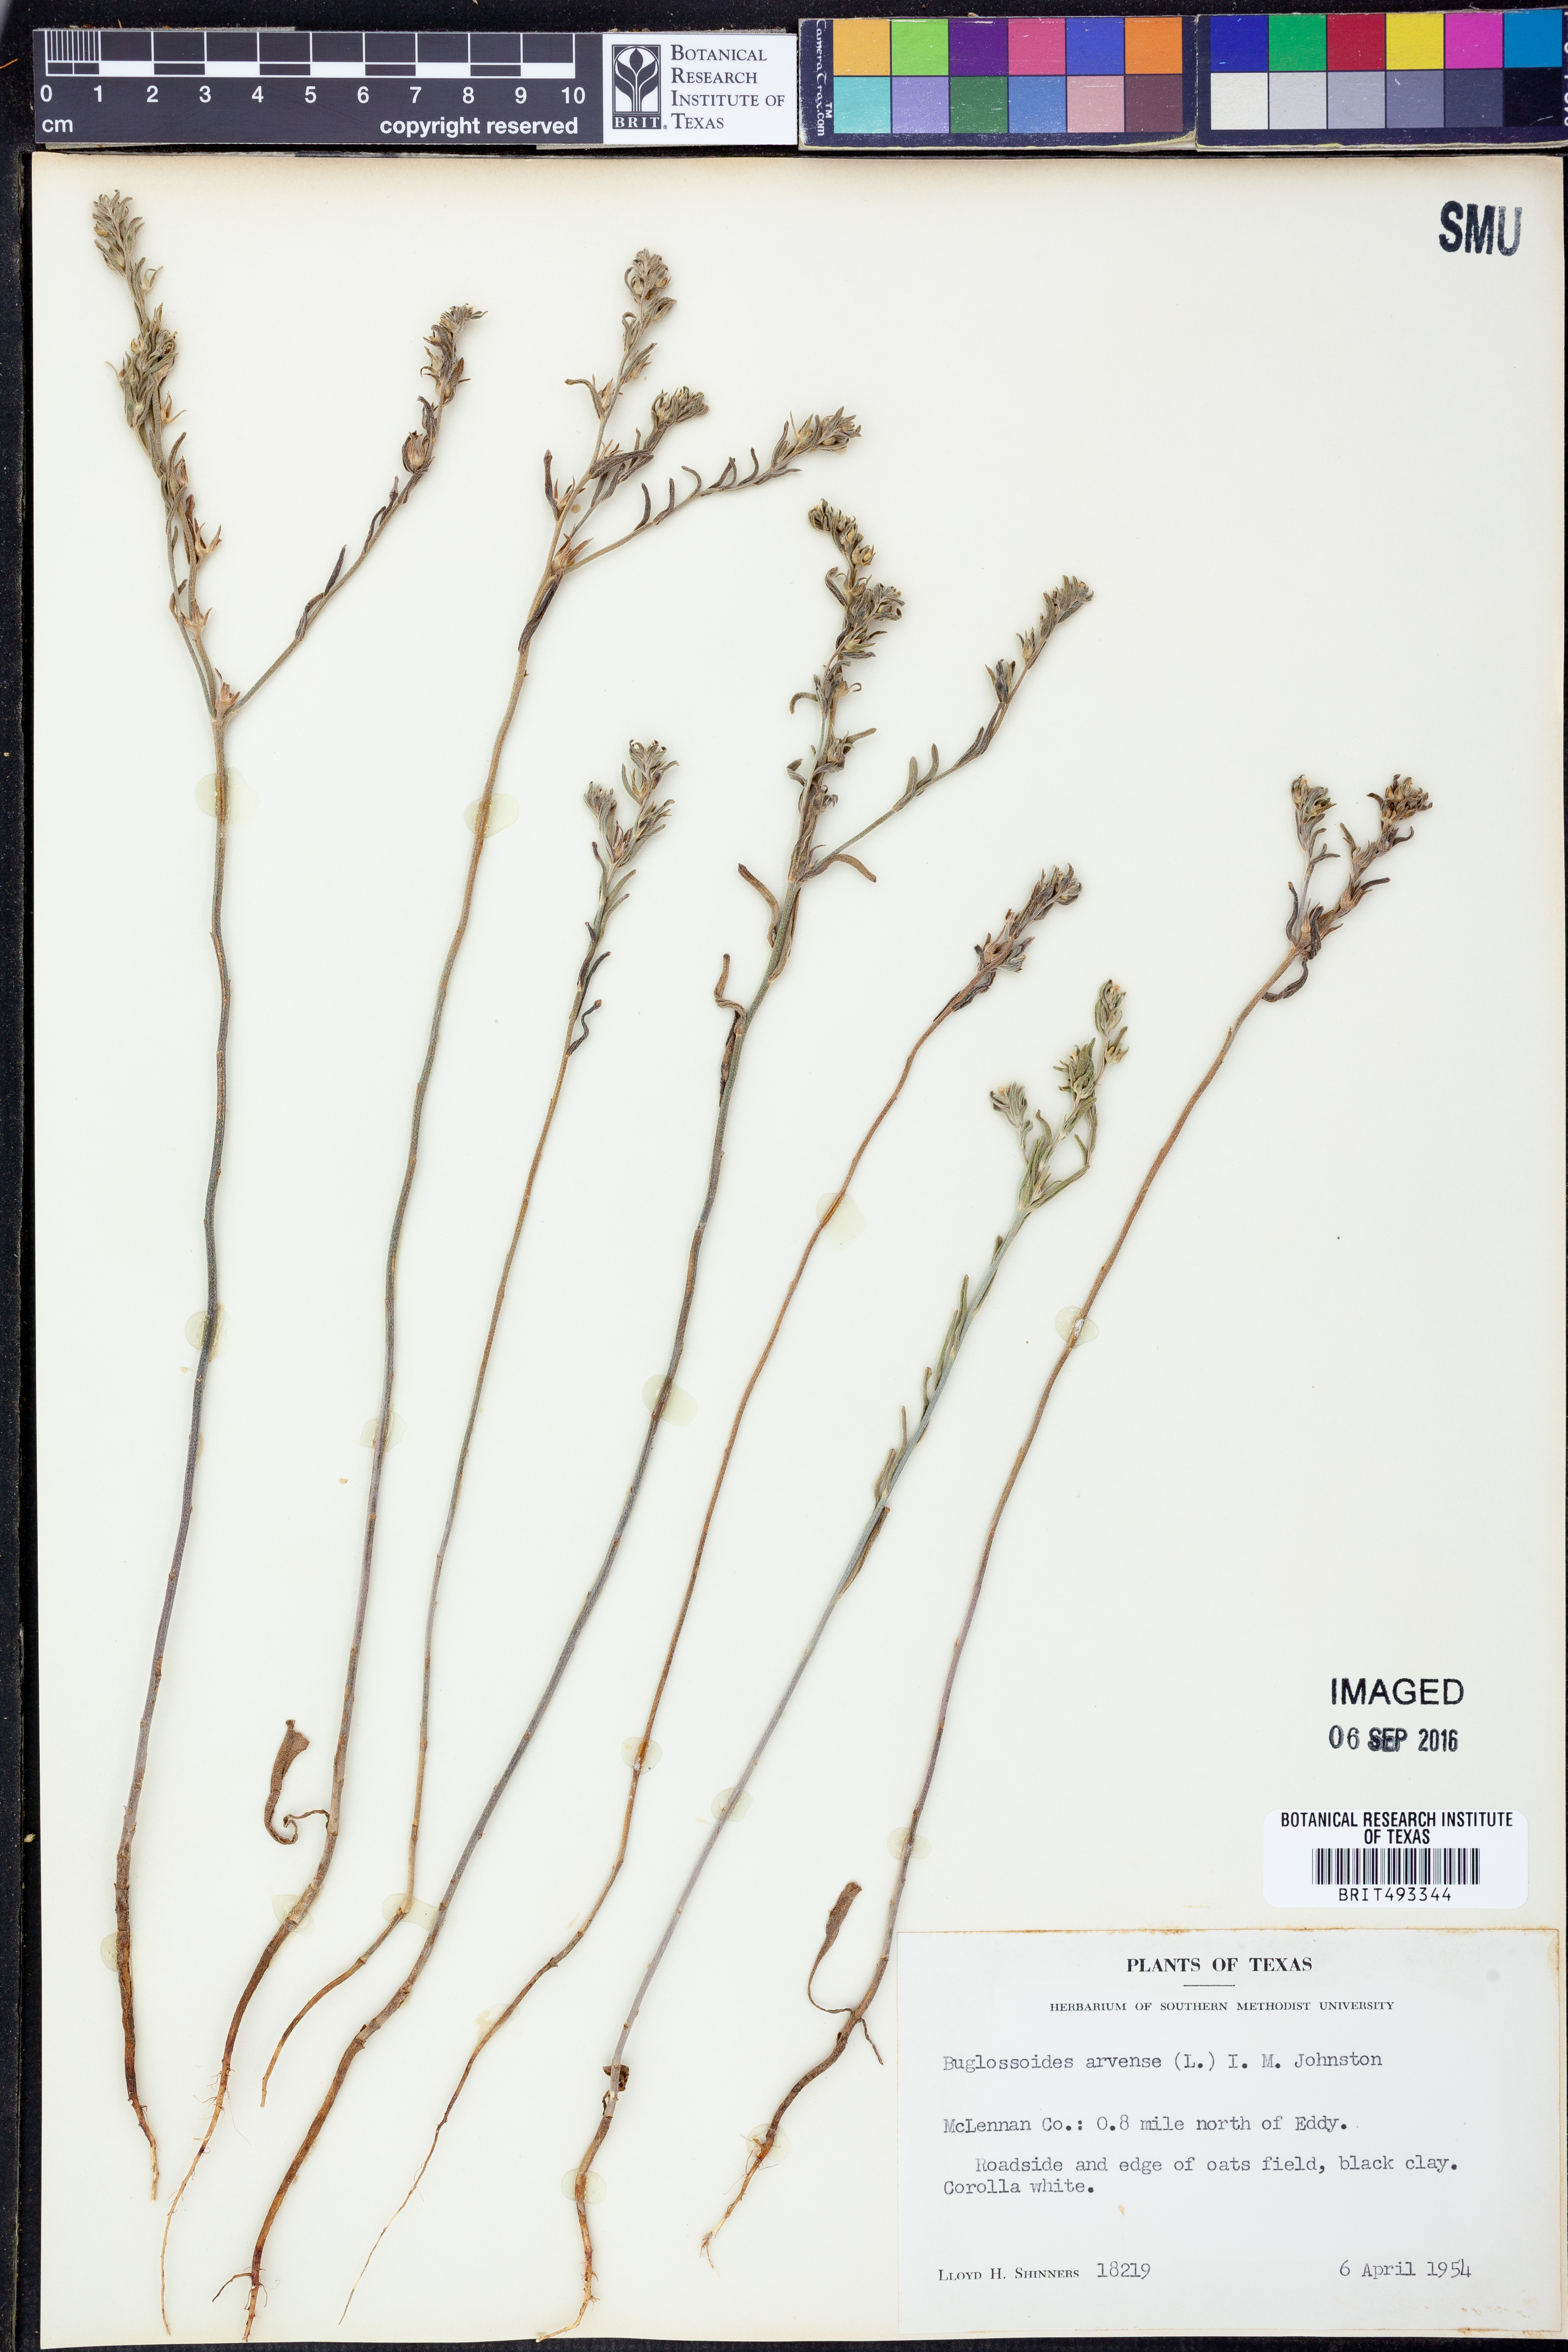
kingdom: Plantae
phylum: Tracheophyta
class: Magnoliopsida
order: Boraginales
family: Boraginaceae
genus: Buglossoides
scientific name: Buglossoides arvensis
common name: Corn gromwell
